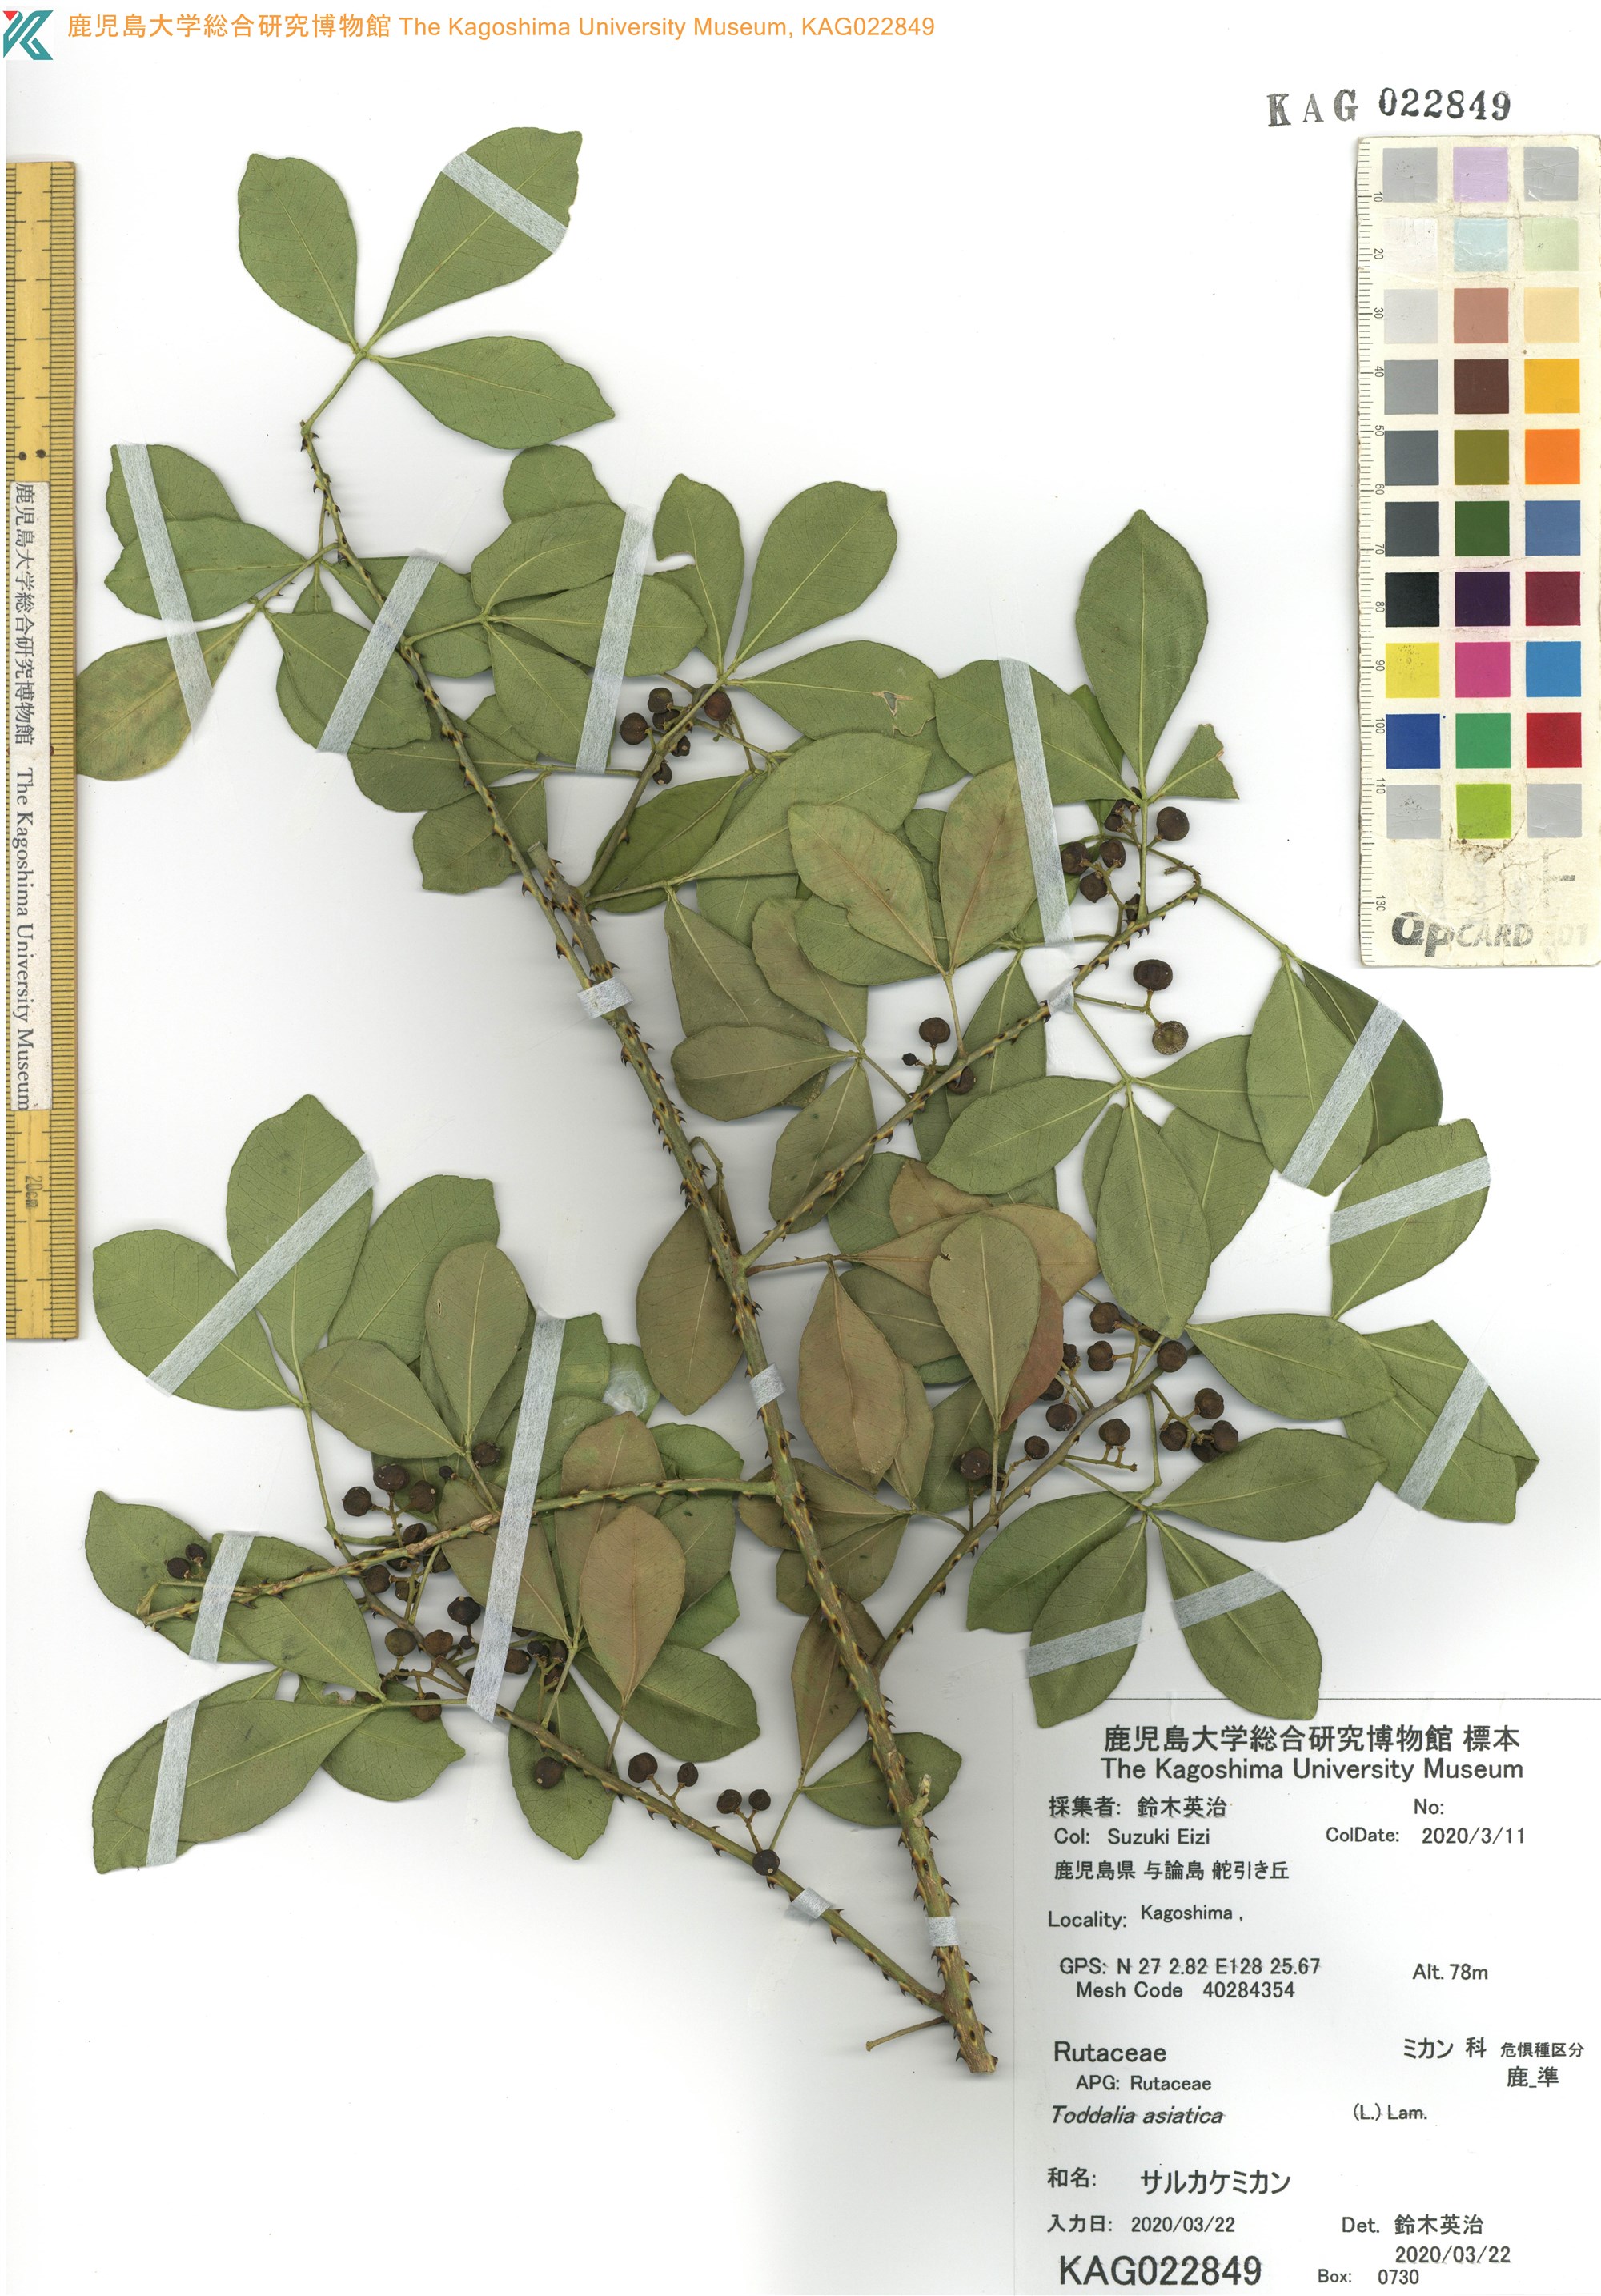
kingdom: Plantae
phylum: Tracheophyta
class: Magnoliopsida
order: Sapindales
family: Rutaceae
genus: Zanthoxylum
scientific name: Zanthoxylum asiaticum
